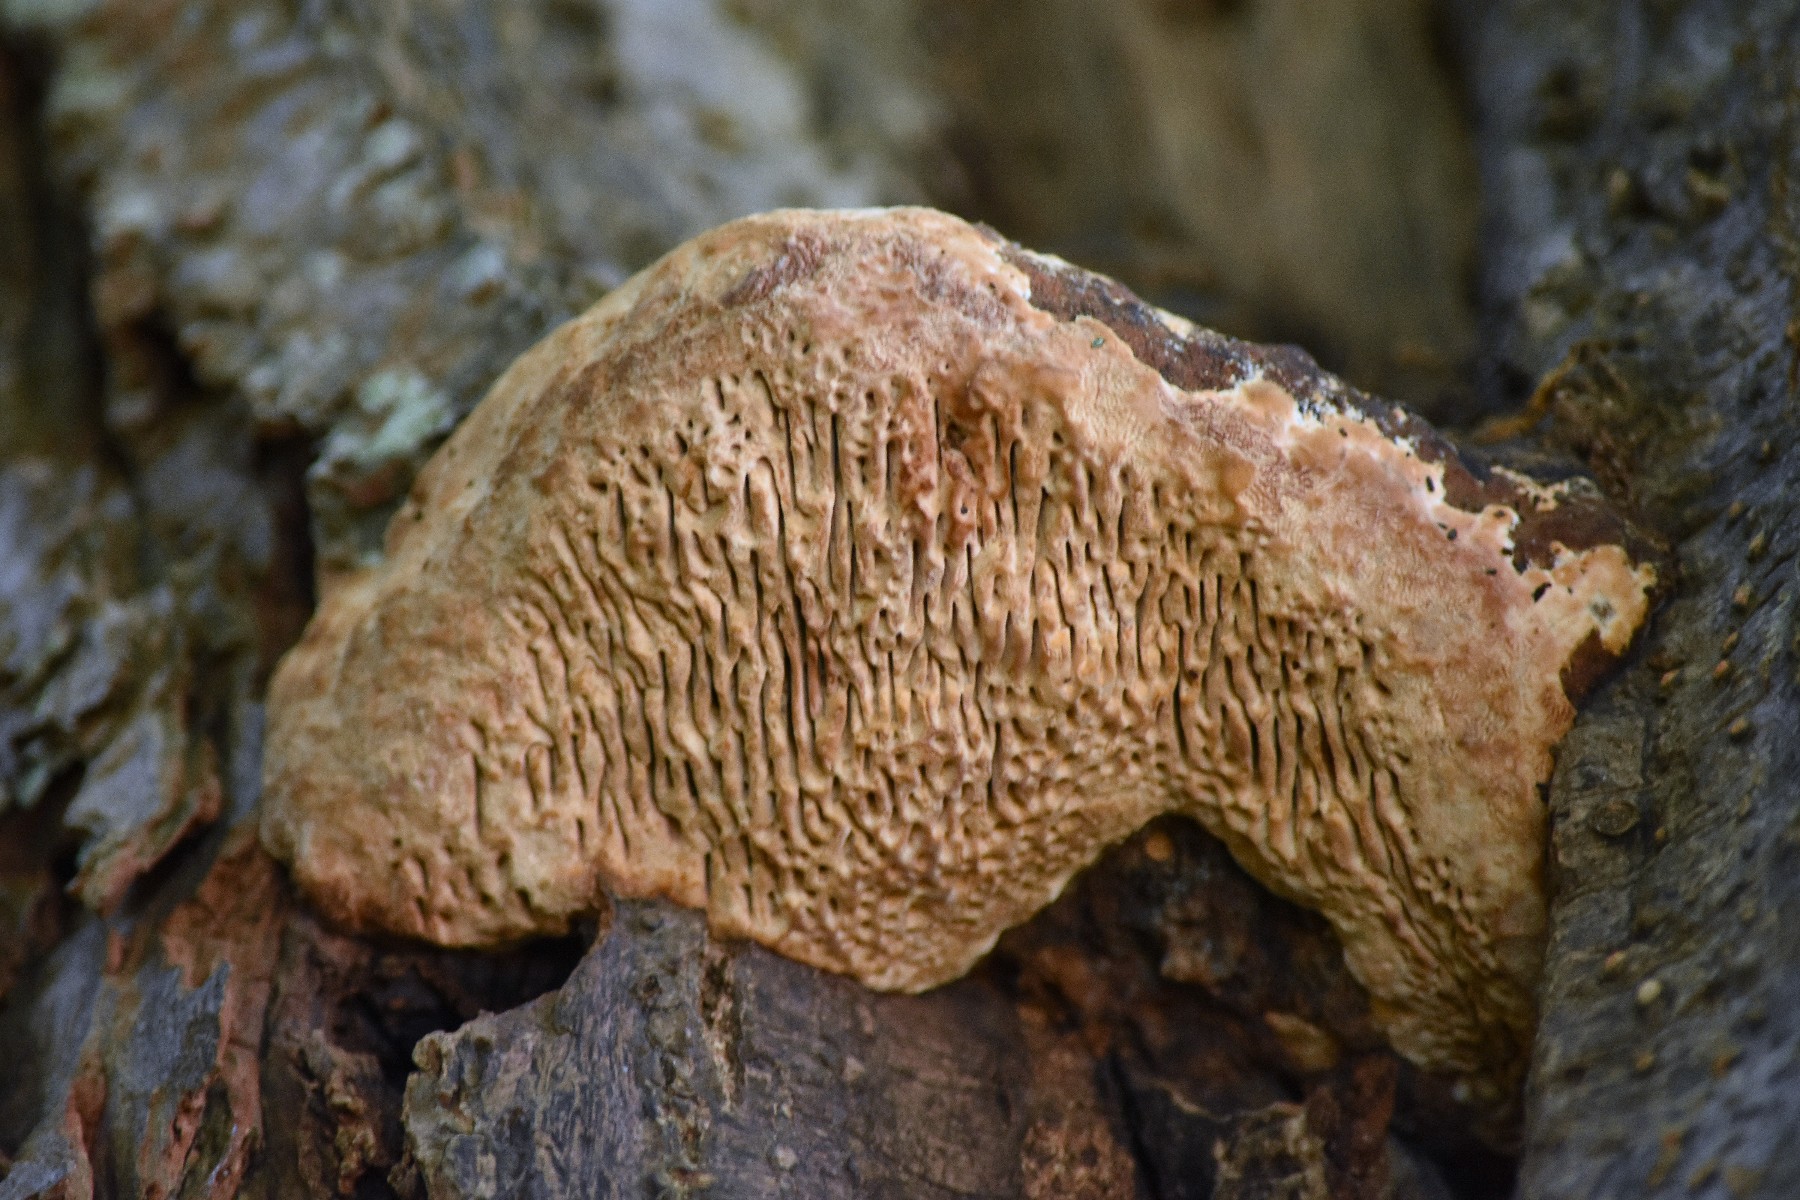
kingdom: Fungi
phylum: Basidiomycota
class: Agaricomycetes
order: Polyporales
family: Fomitopsidaceae
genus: Daedalea
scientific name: Daedalea quercina
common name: ege-labyrintsvamp
